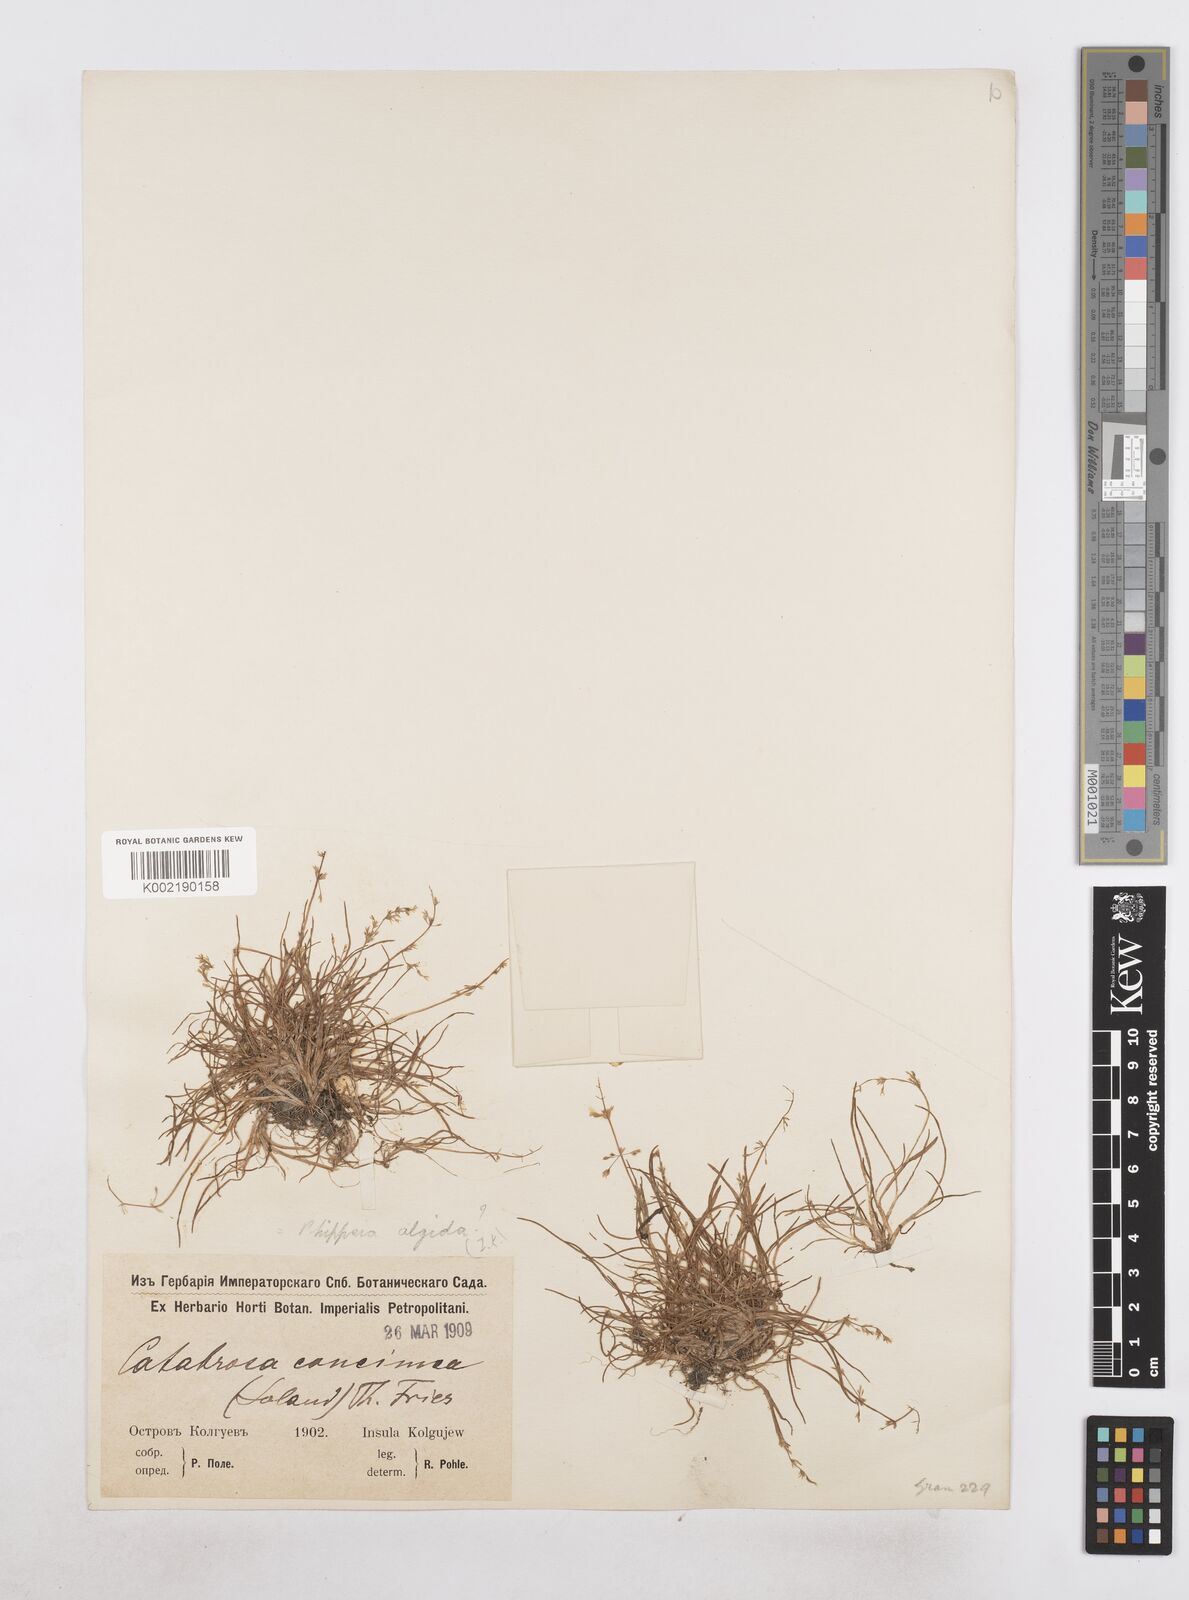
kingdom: Plantae
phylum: Tracheophyta
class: Liliopsida
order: Poales
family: Poaceae
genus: Phippsia
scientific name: Phippsia concinna
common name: Snowgrass
